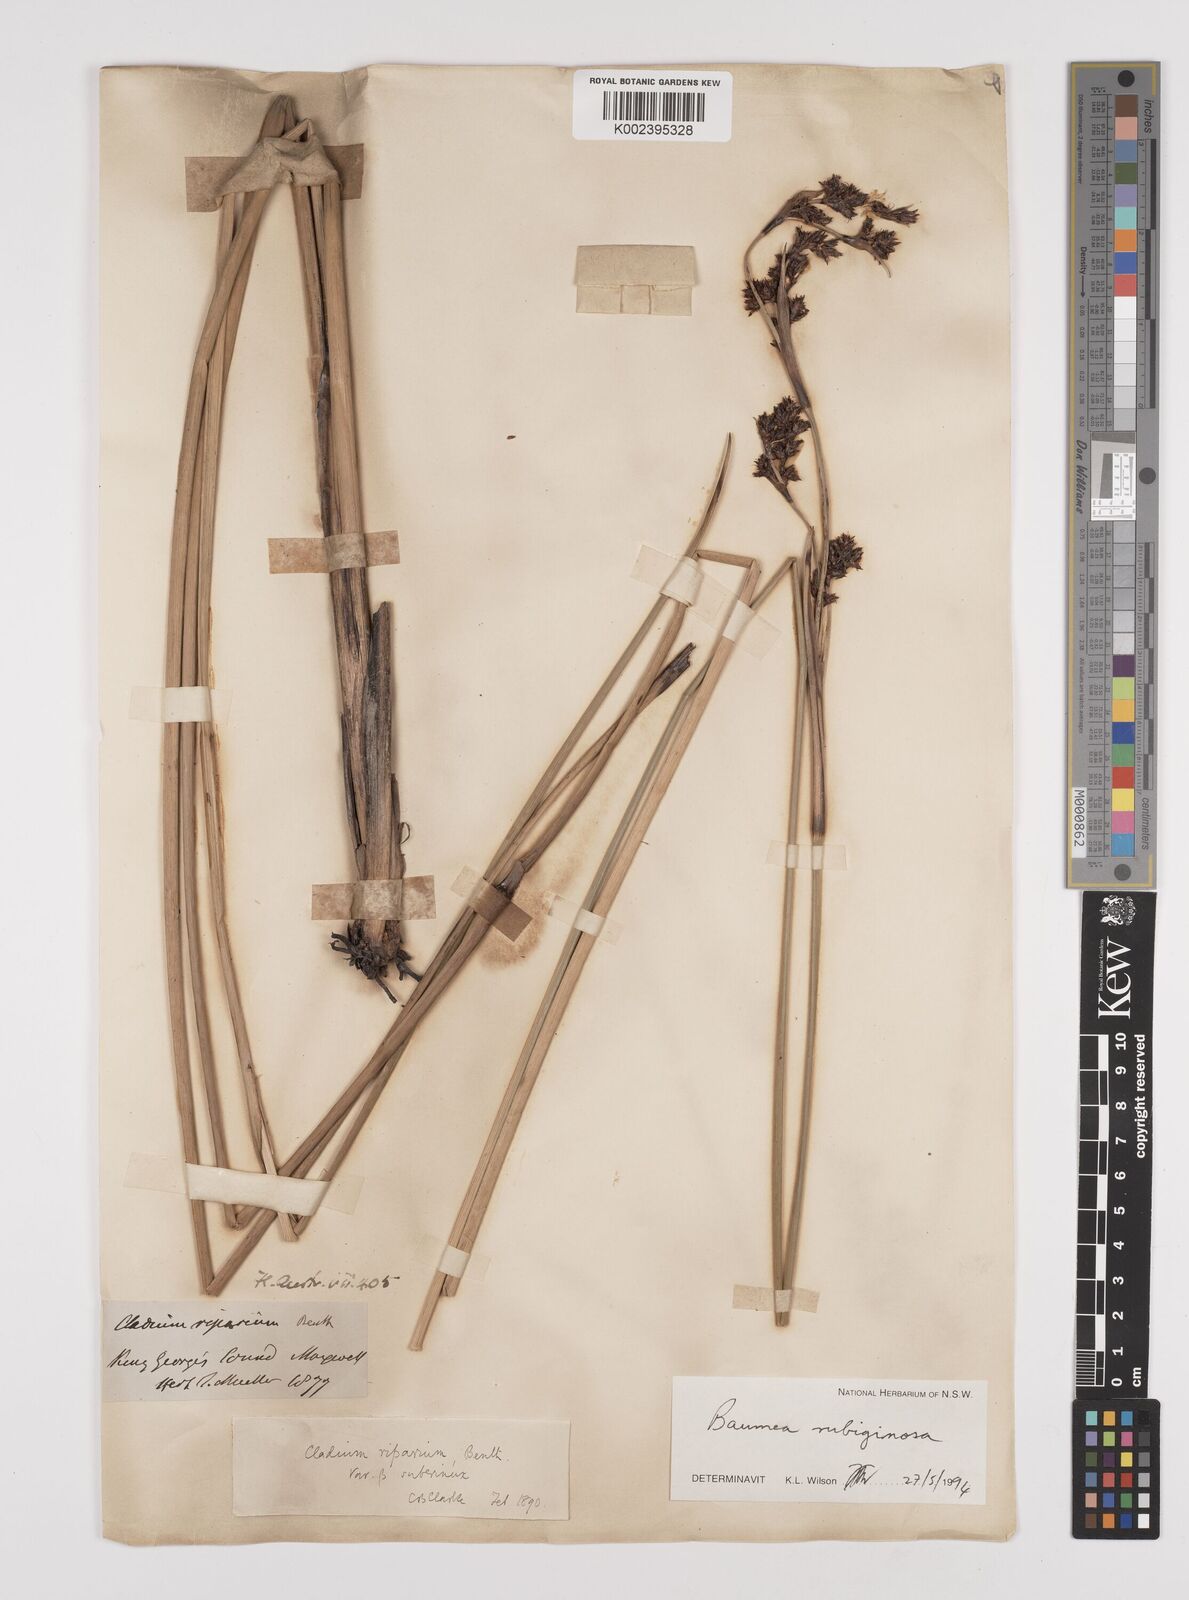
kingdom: Plantae
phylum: Tracheophyta
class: Liliopsida
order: Poales
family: Cyperaceae
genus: Machaerina
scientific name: Machaerina rubiginosa
